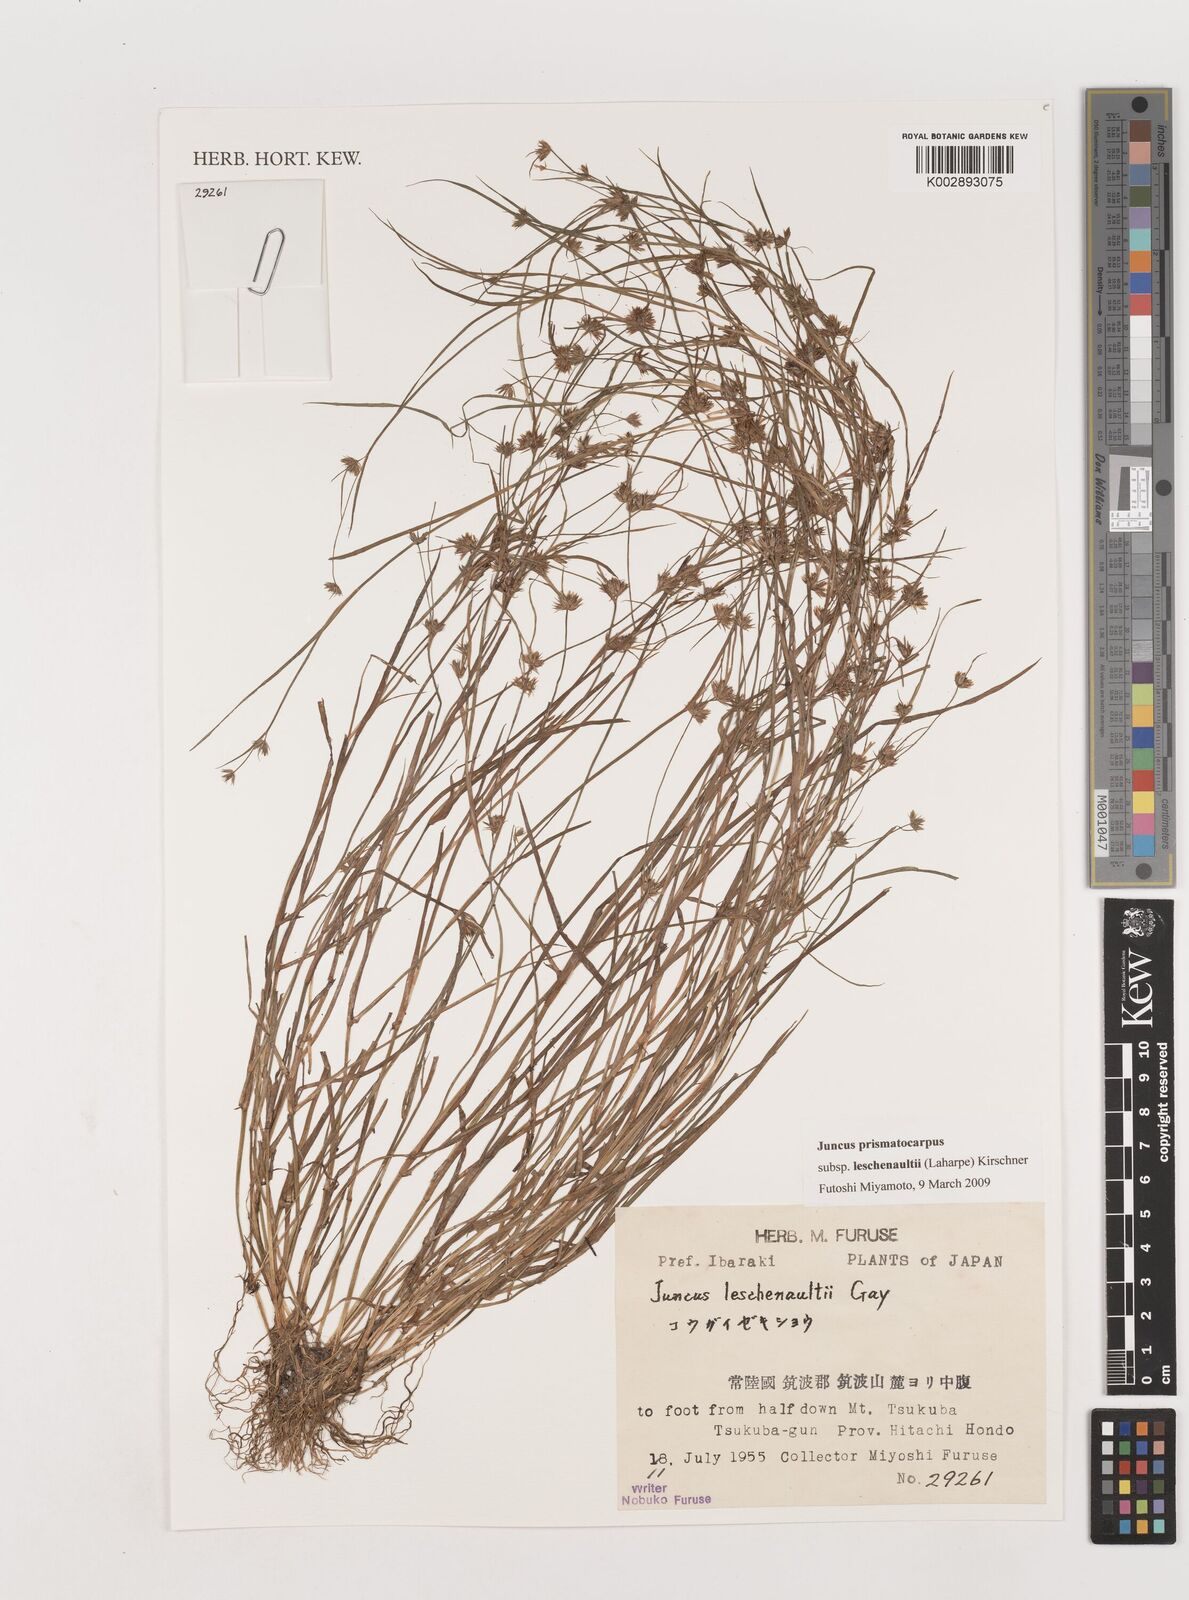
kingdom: Plantae
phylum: Tracheophyta
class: Liliopsida
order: Poales
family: Juncaceae
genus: Juncus
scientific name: Juncus prismatocarpus
